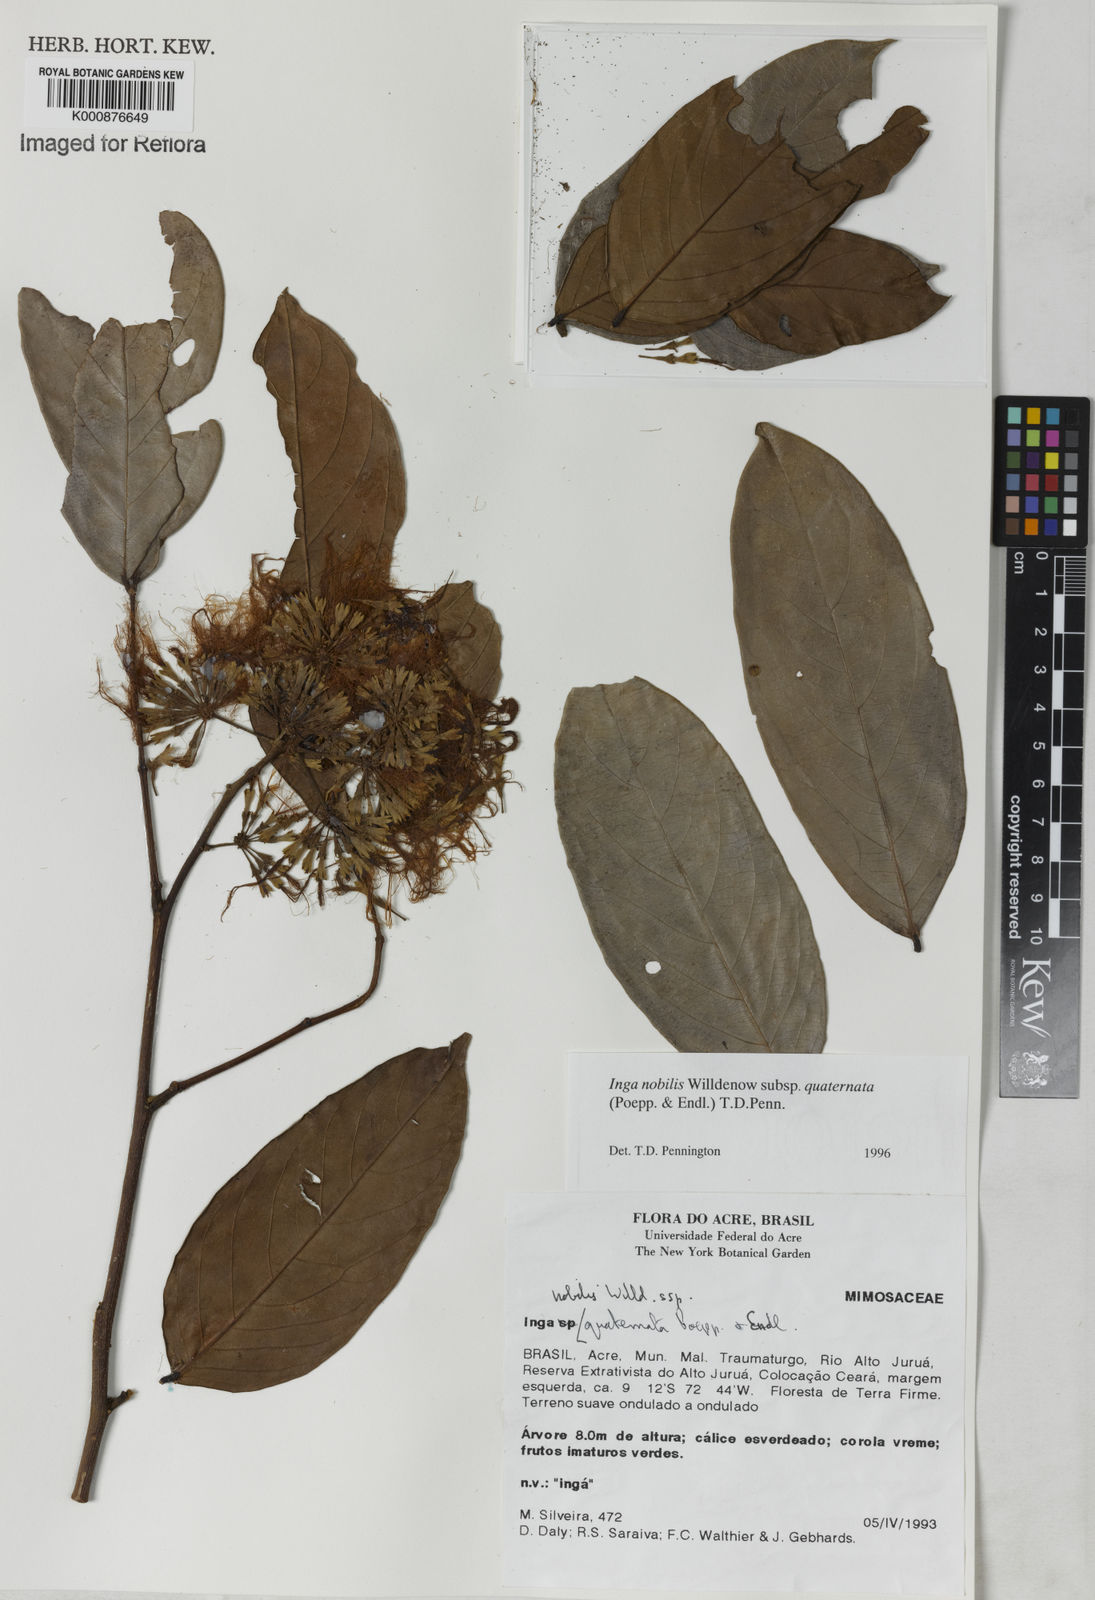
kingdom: Plantae
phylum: Tracheophyta
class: Magnoliopsida
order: Fabales
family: Fabaceae
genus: Inga
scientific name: Inga nobilis
